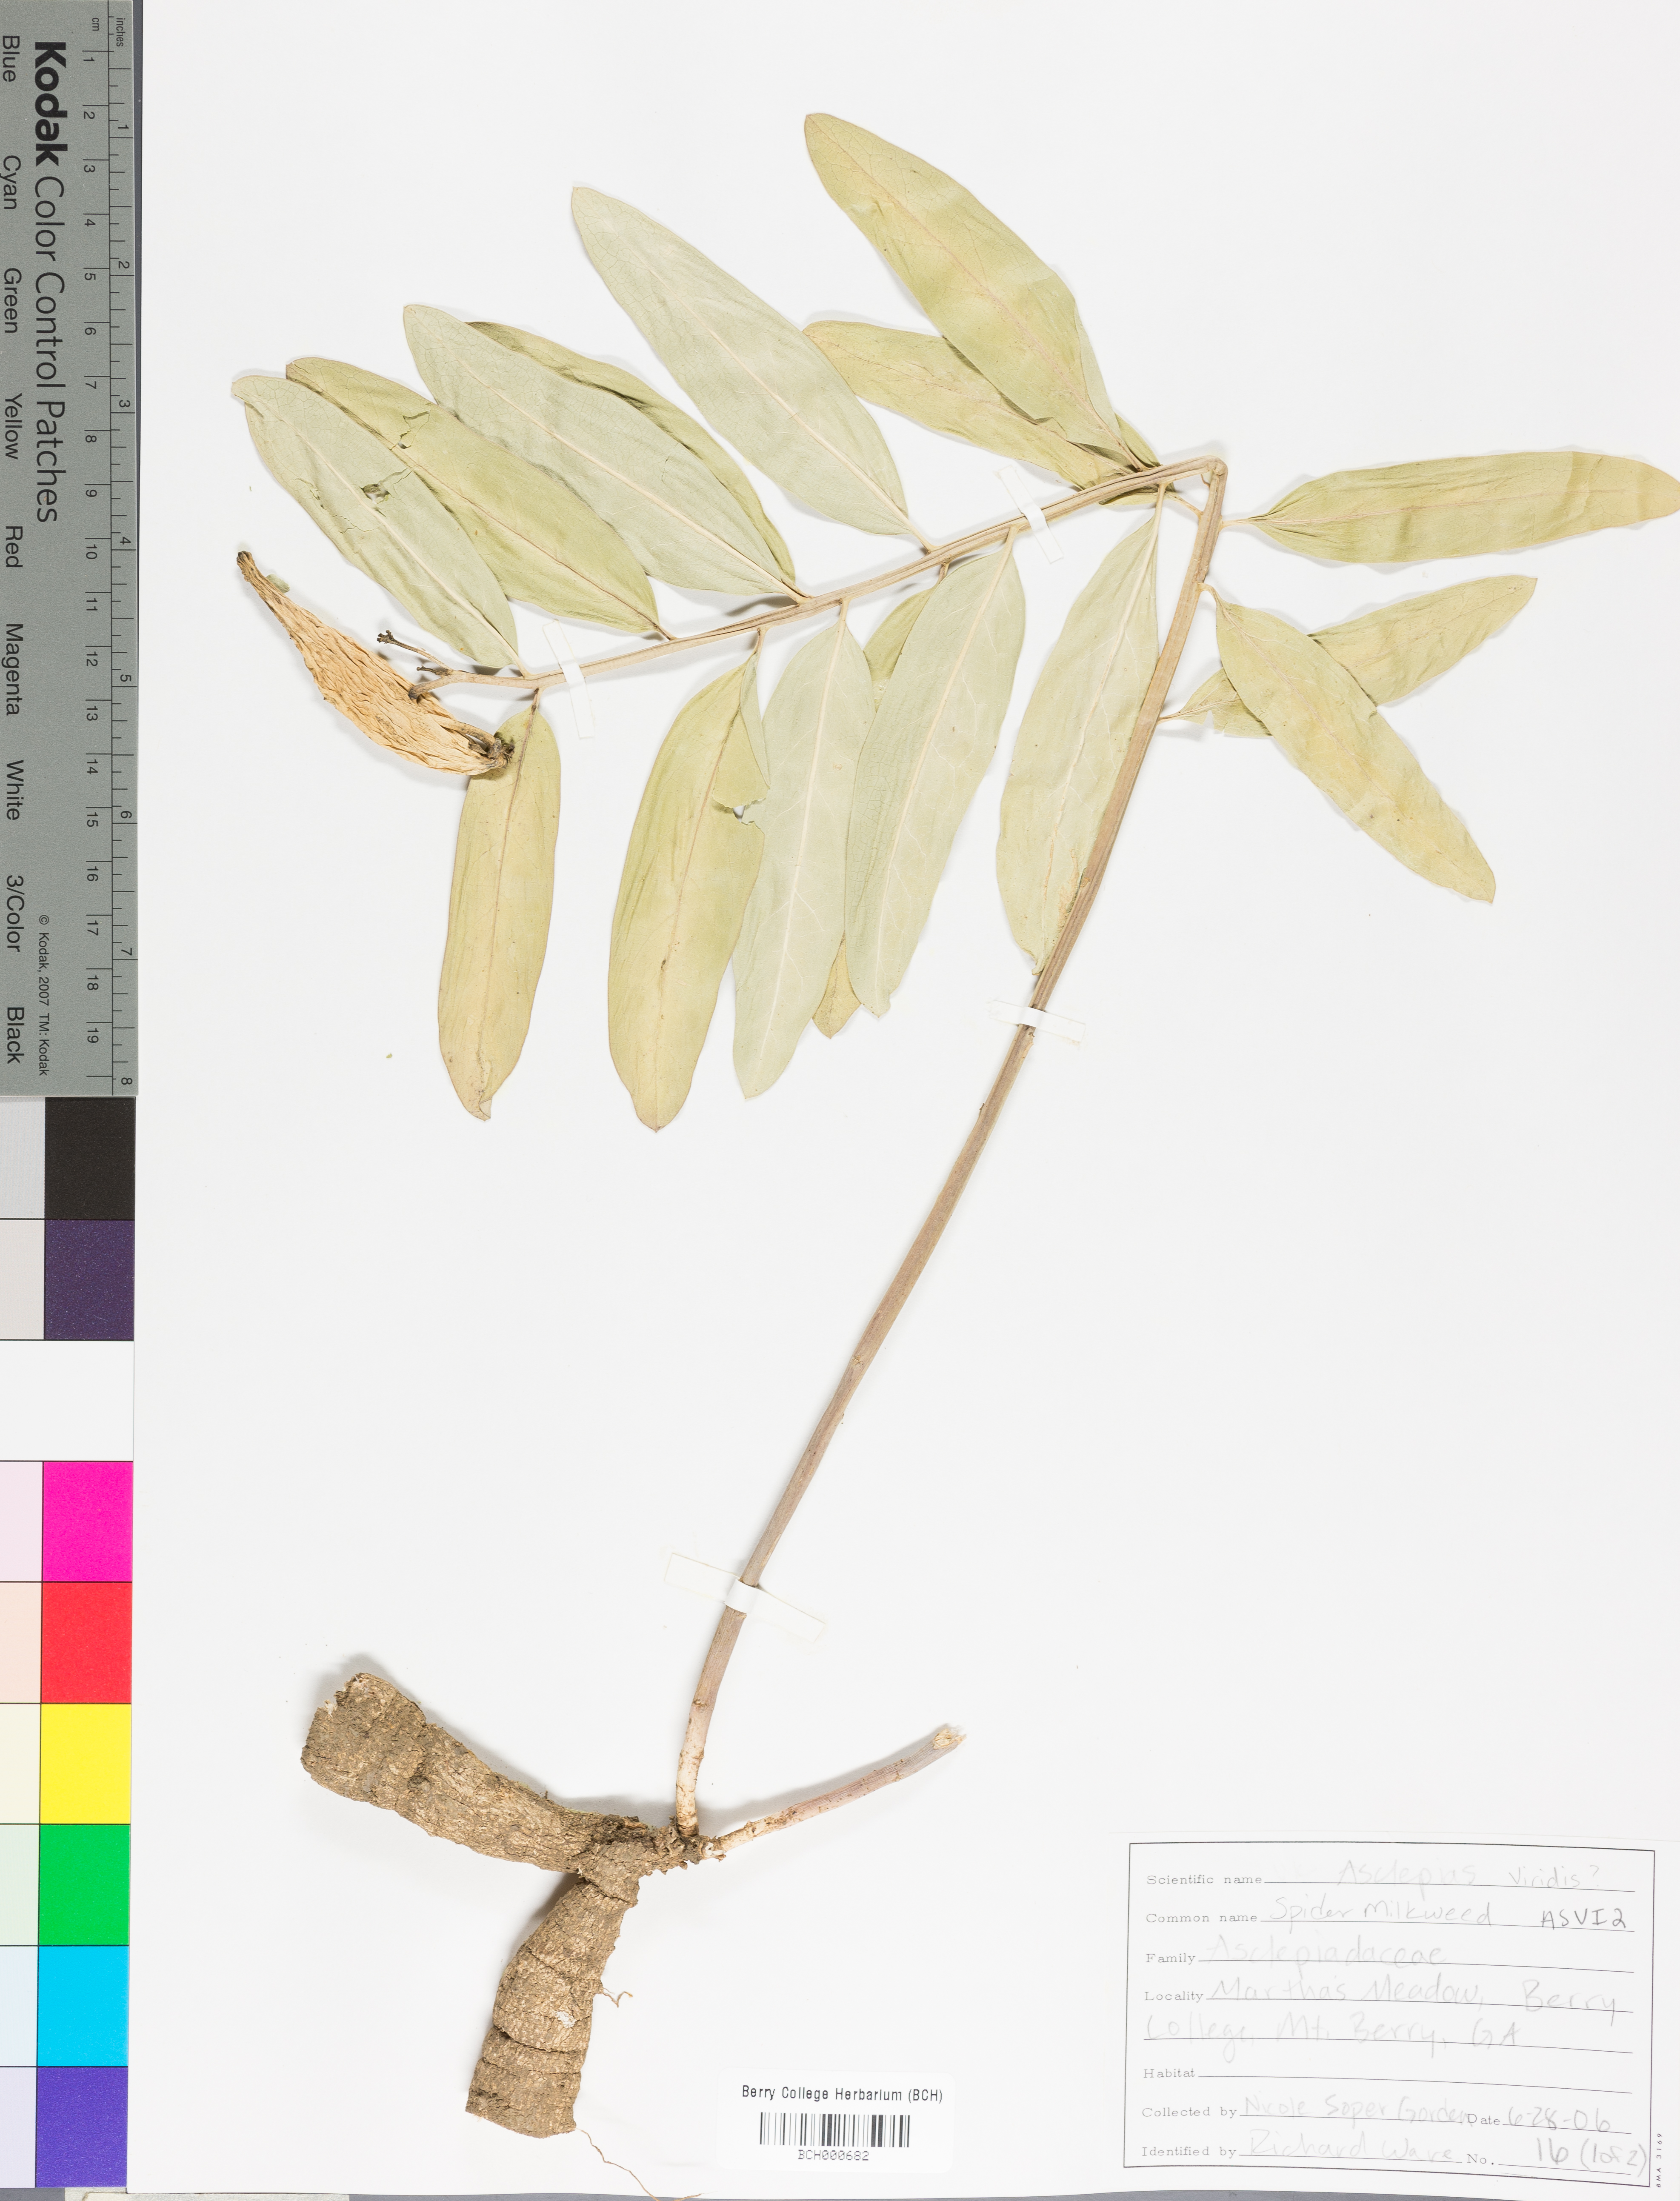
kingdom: Plantae
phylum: Tracheophyta
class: Magnoliopsida
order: Gentianales
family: Apocynaceae
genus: Asclepias
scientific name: Asclepias viridis
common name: Antelope-horns
